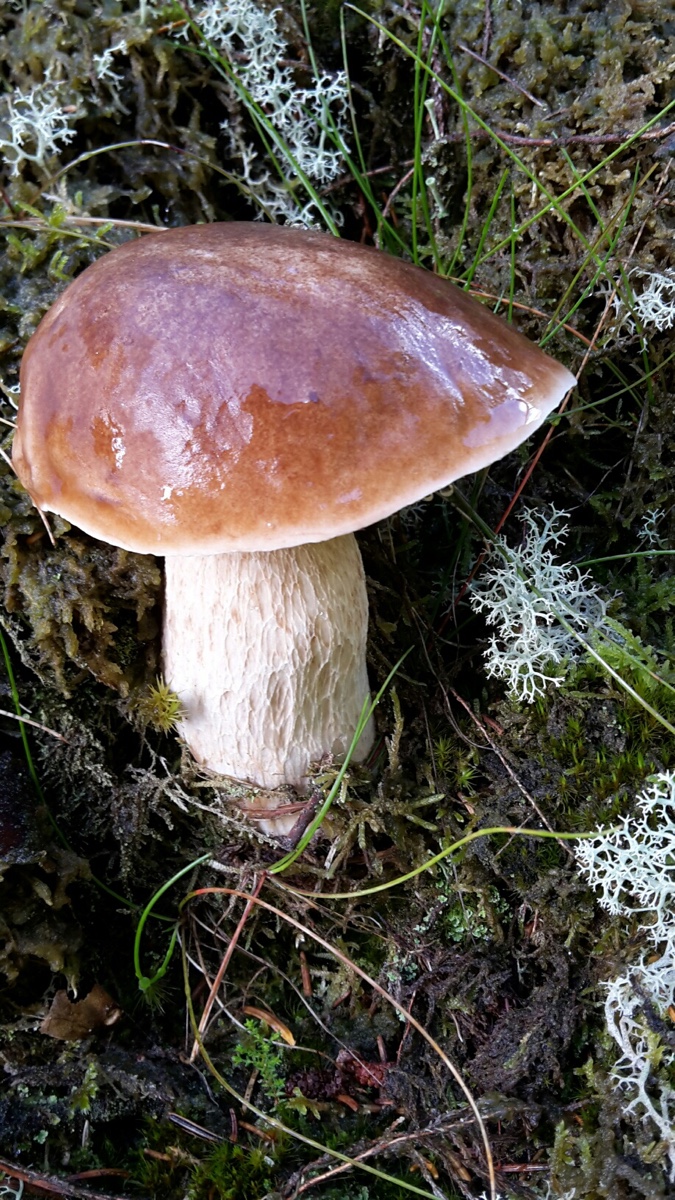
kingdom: Fungi
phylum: Basidiomycota
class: Agaricomycetes
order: Boletales
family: Boletaceae
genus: Boletus
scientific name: Boletus edulis
